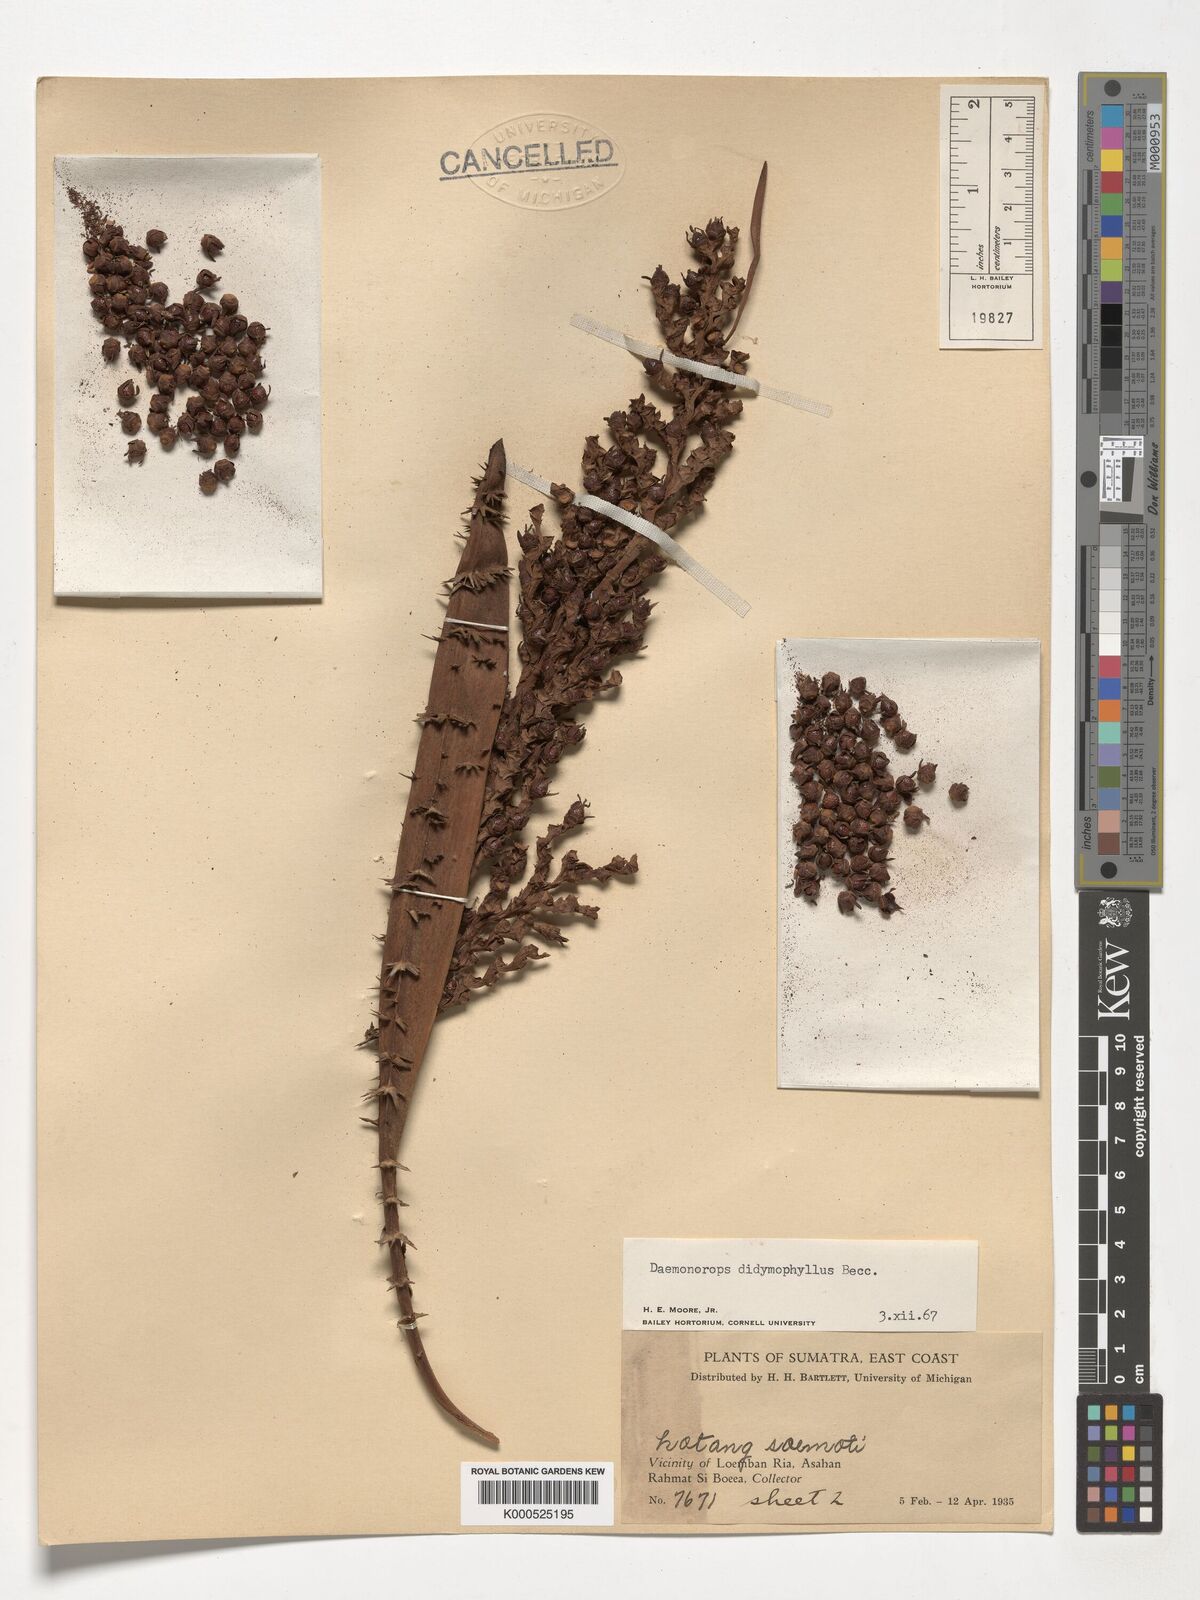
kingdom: Plantae
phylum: Tracheophyta
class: Liliopsida
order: Arecales
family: Arecaceae
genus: Calamus
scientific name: Calamus gracilipes
